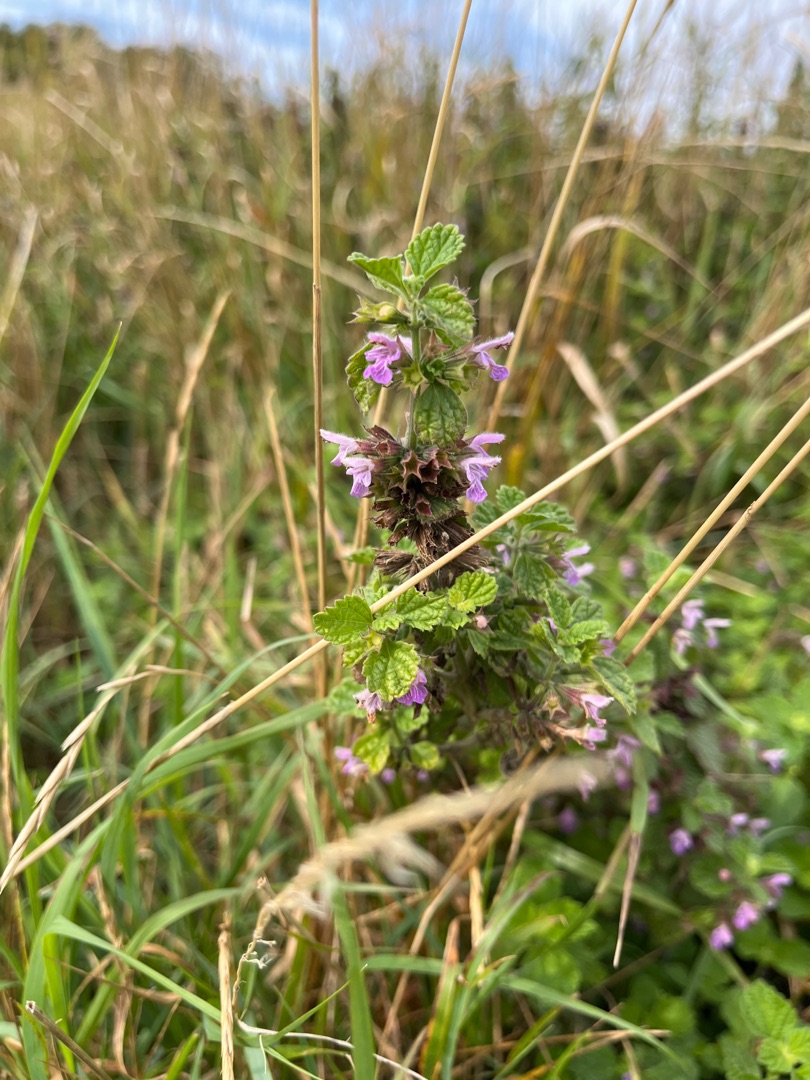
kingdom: Plantae
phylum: Tracheophyta
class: Magnoliopsida
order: Lamiales
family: Lamiaceae
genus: Ballota
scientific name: Ballota nigra
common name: Tandbæger
